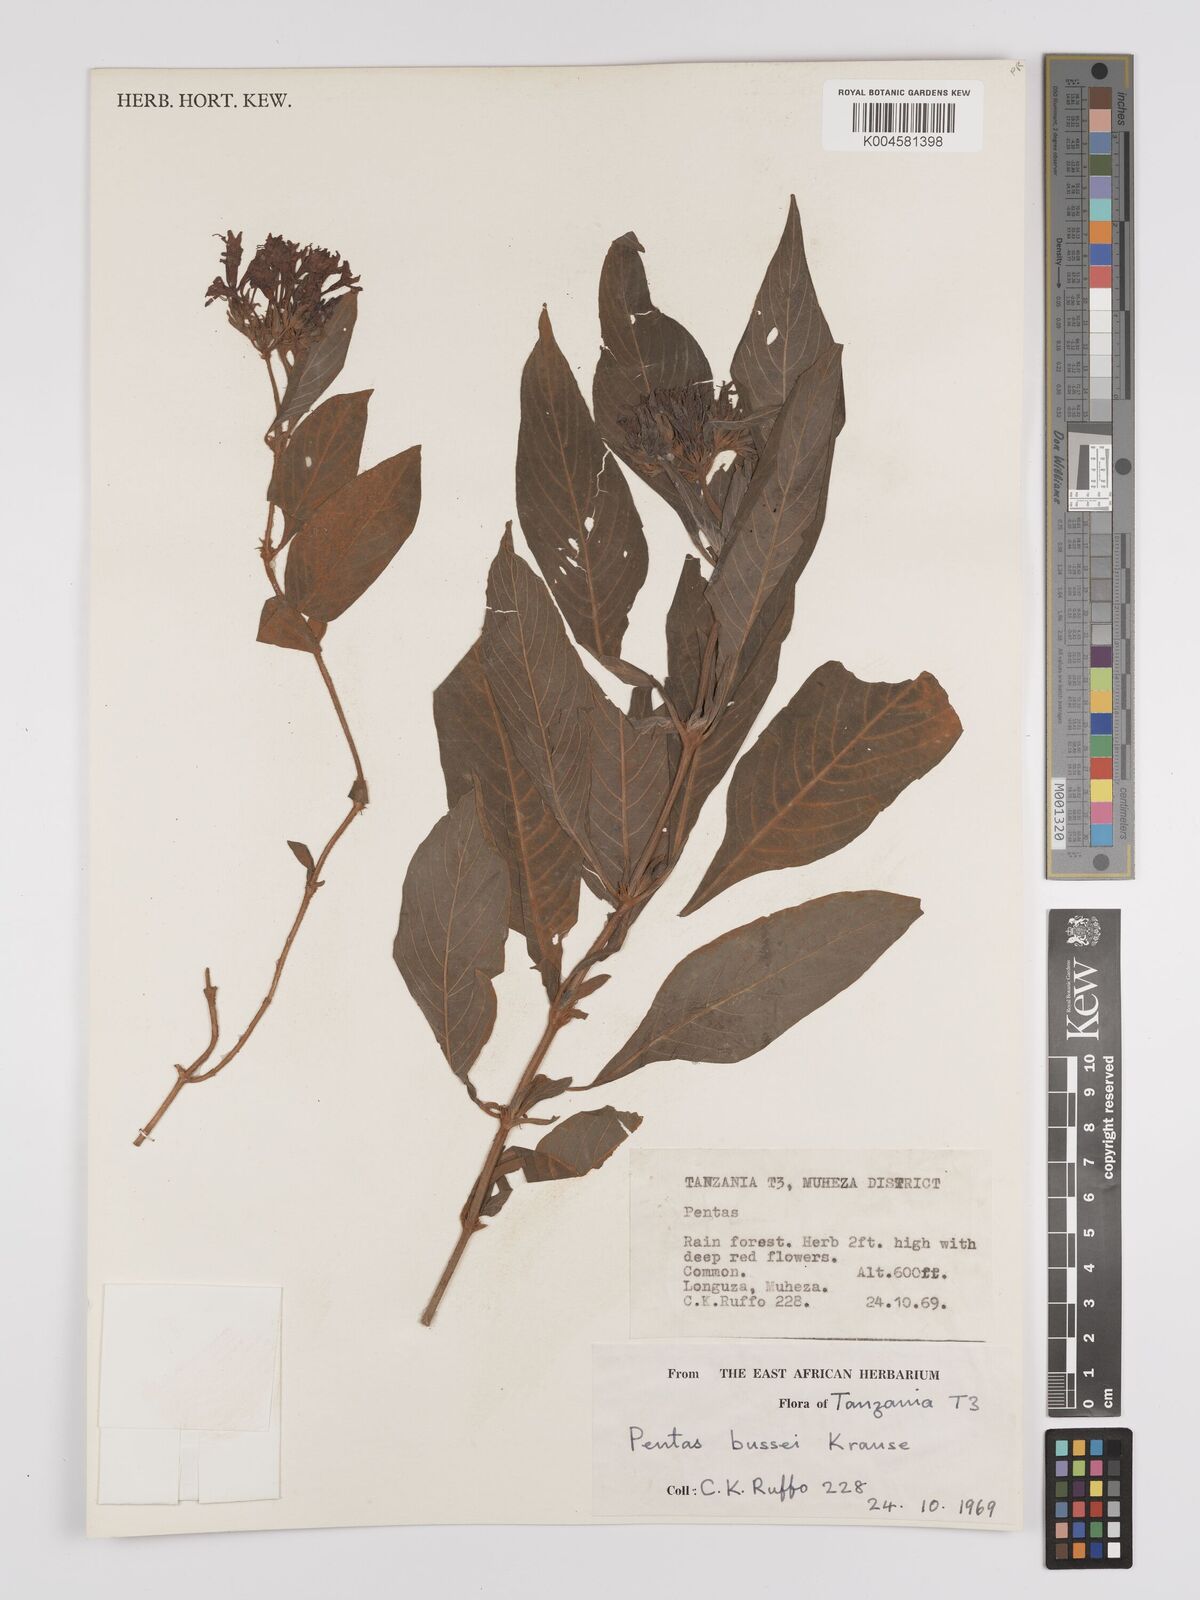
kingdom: Plantae
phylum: Tracheophyta
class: Magnoliopsida
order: Gentianales
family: Rubiaceae
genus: Rhodopentas
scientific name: Rhodopentas bussei
